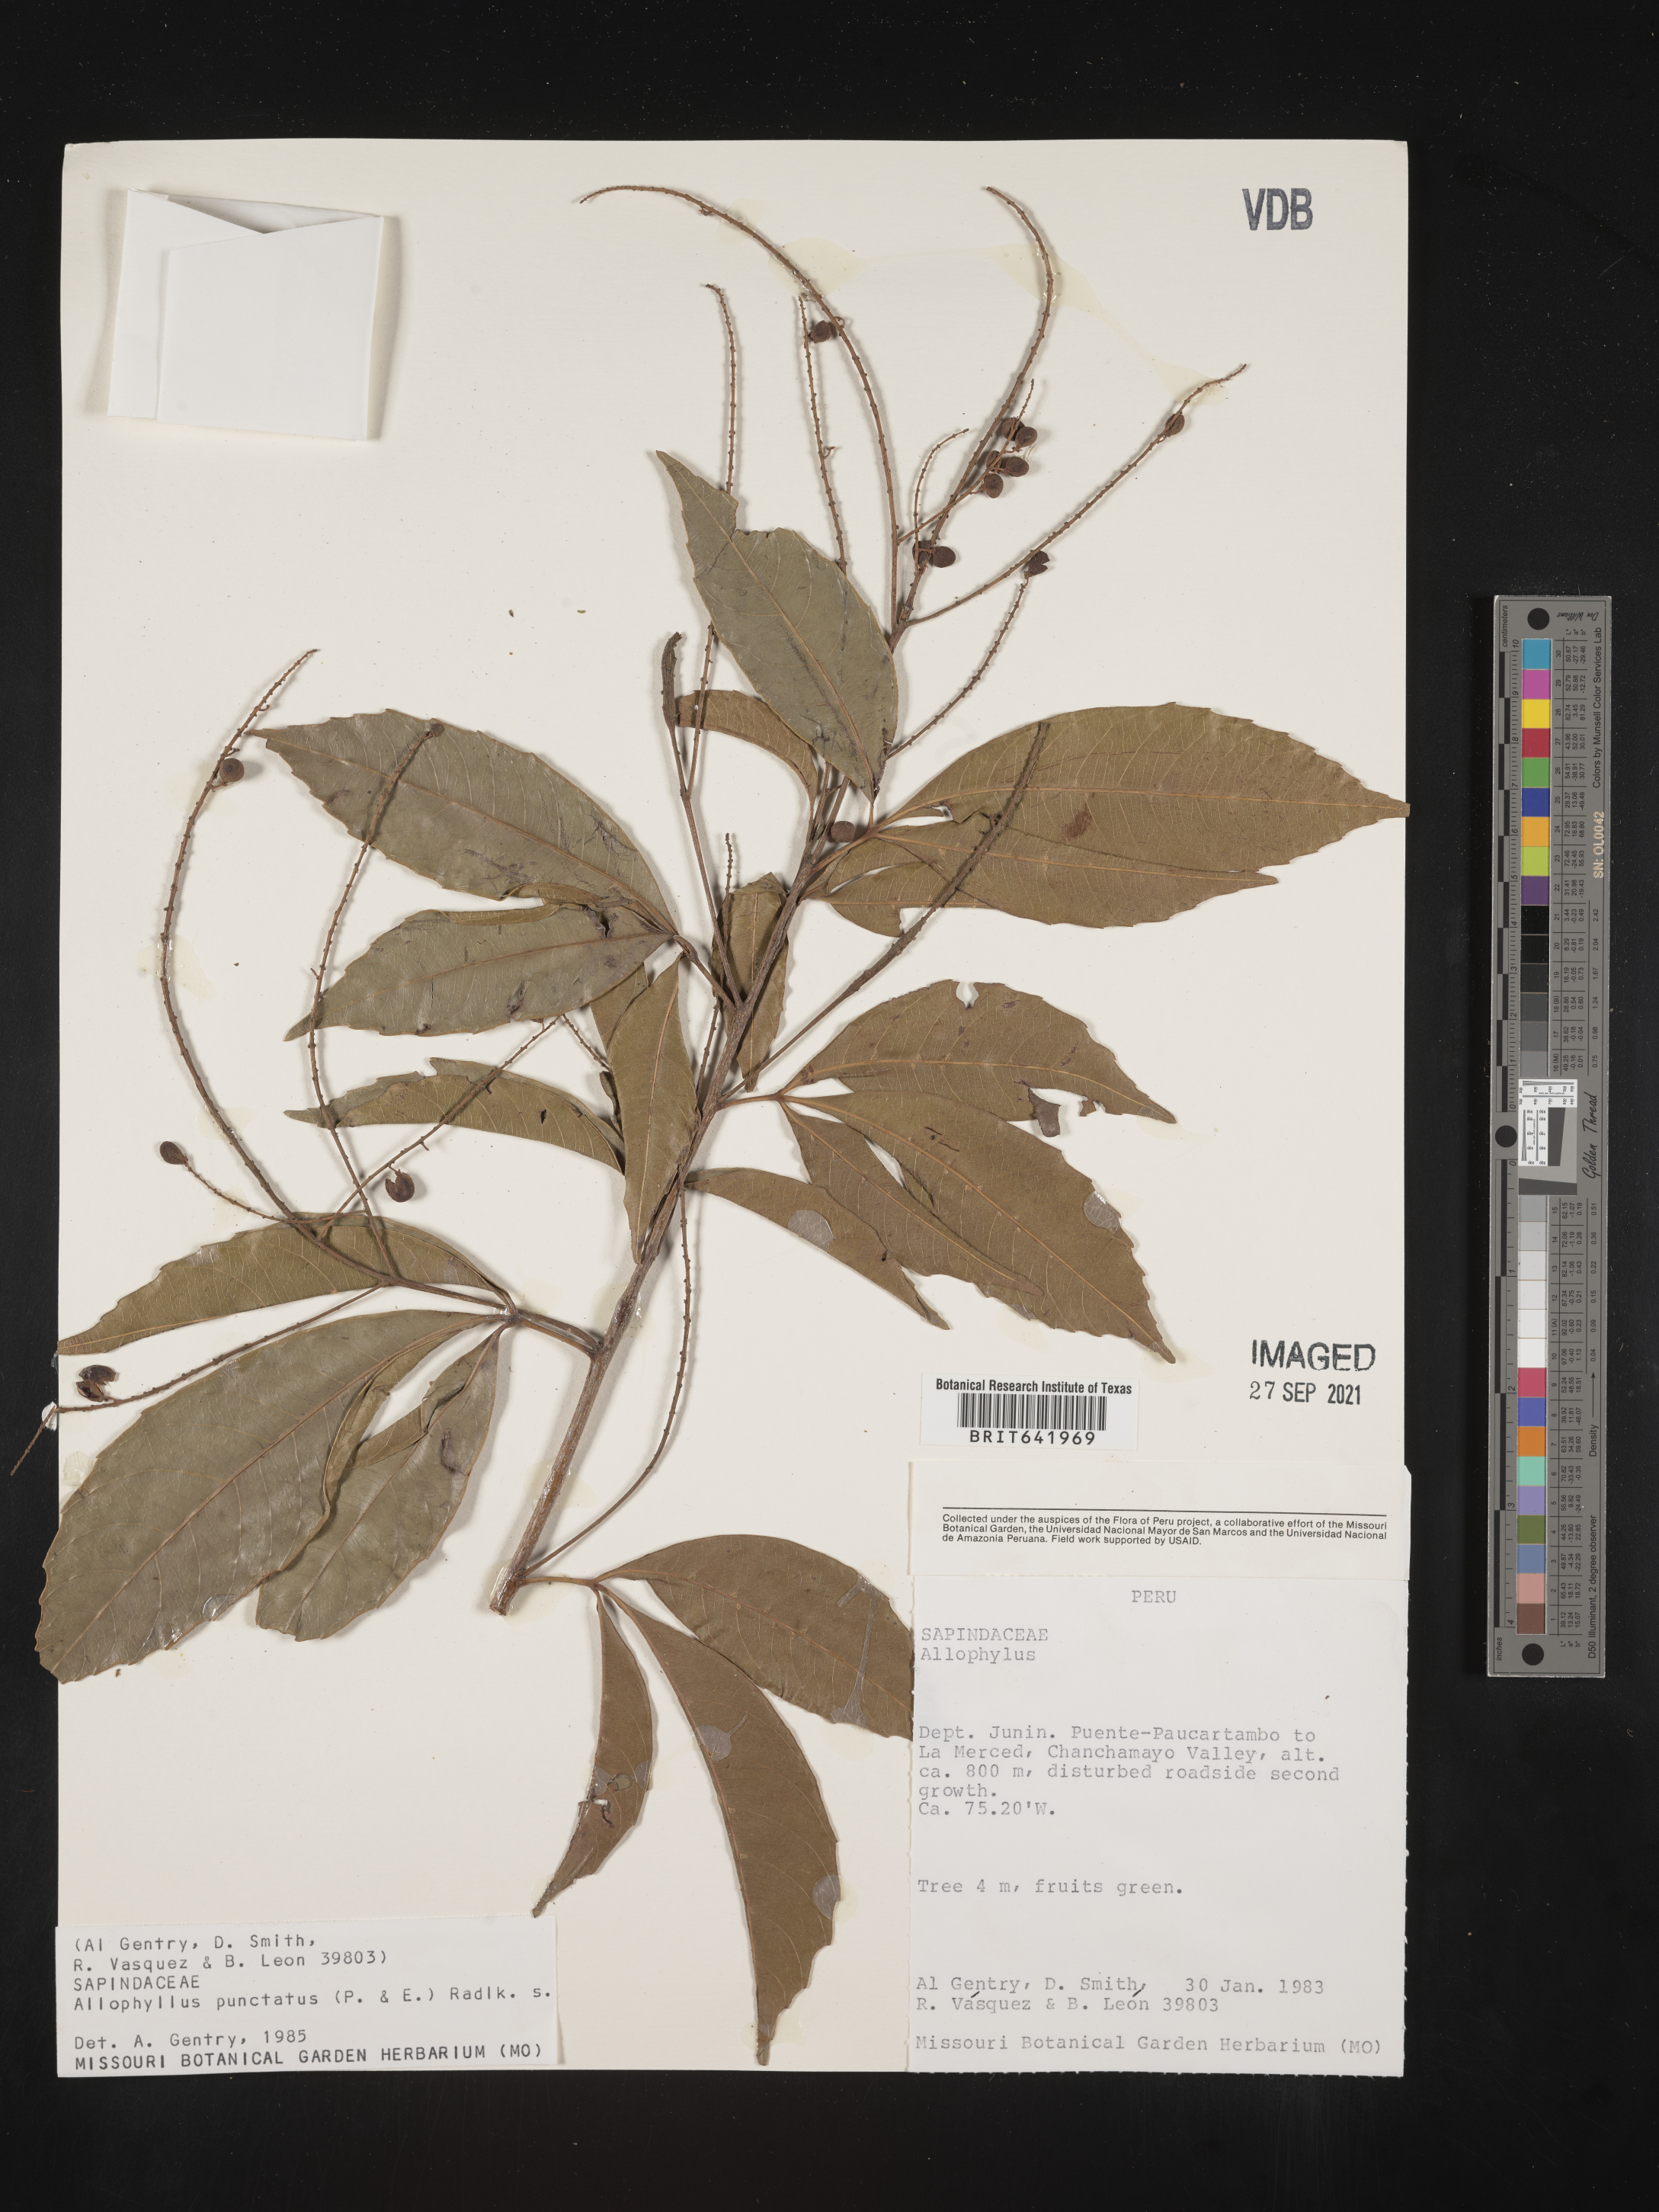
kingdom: Plantae
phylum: Tracheophyta
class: Magnoliopsida
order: Sapindales
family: Sapindaceae
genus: Allophylus
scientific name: Allophylus
